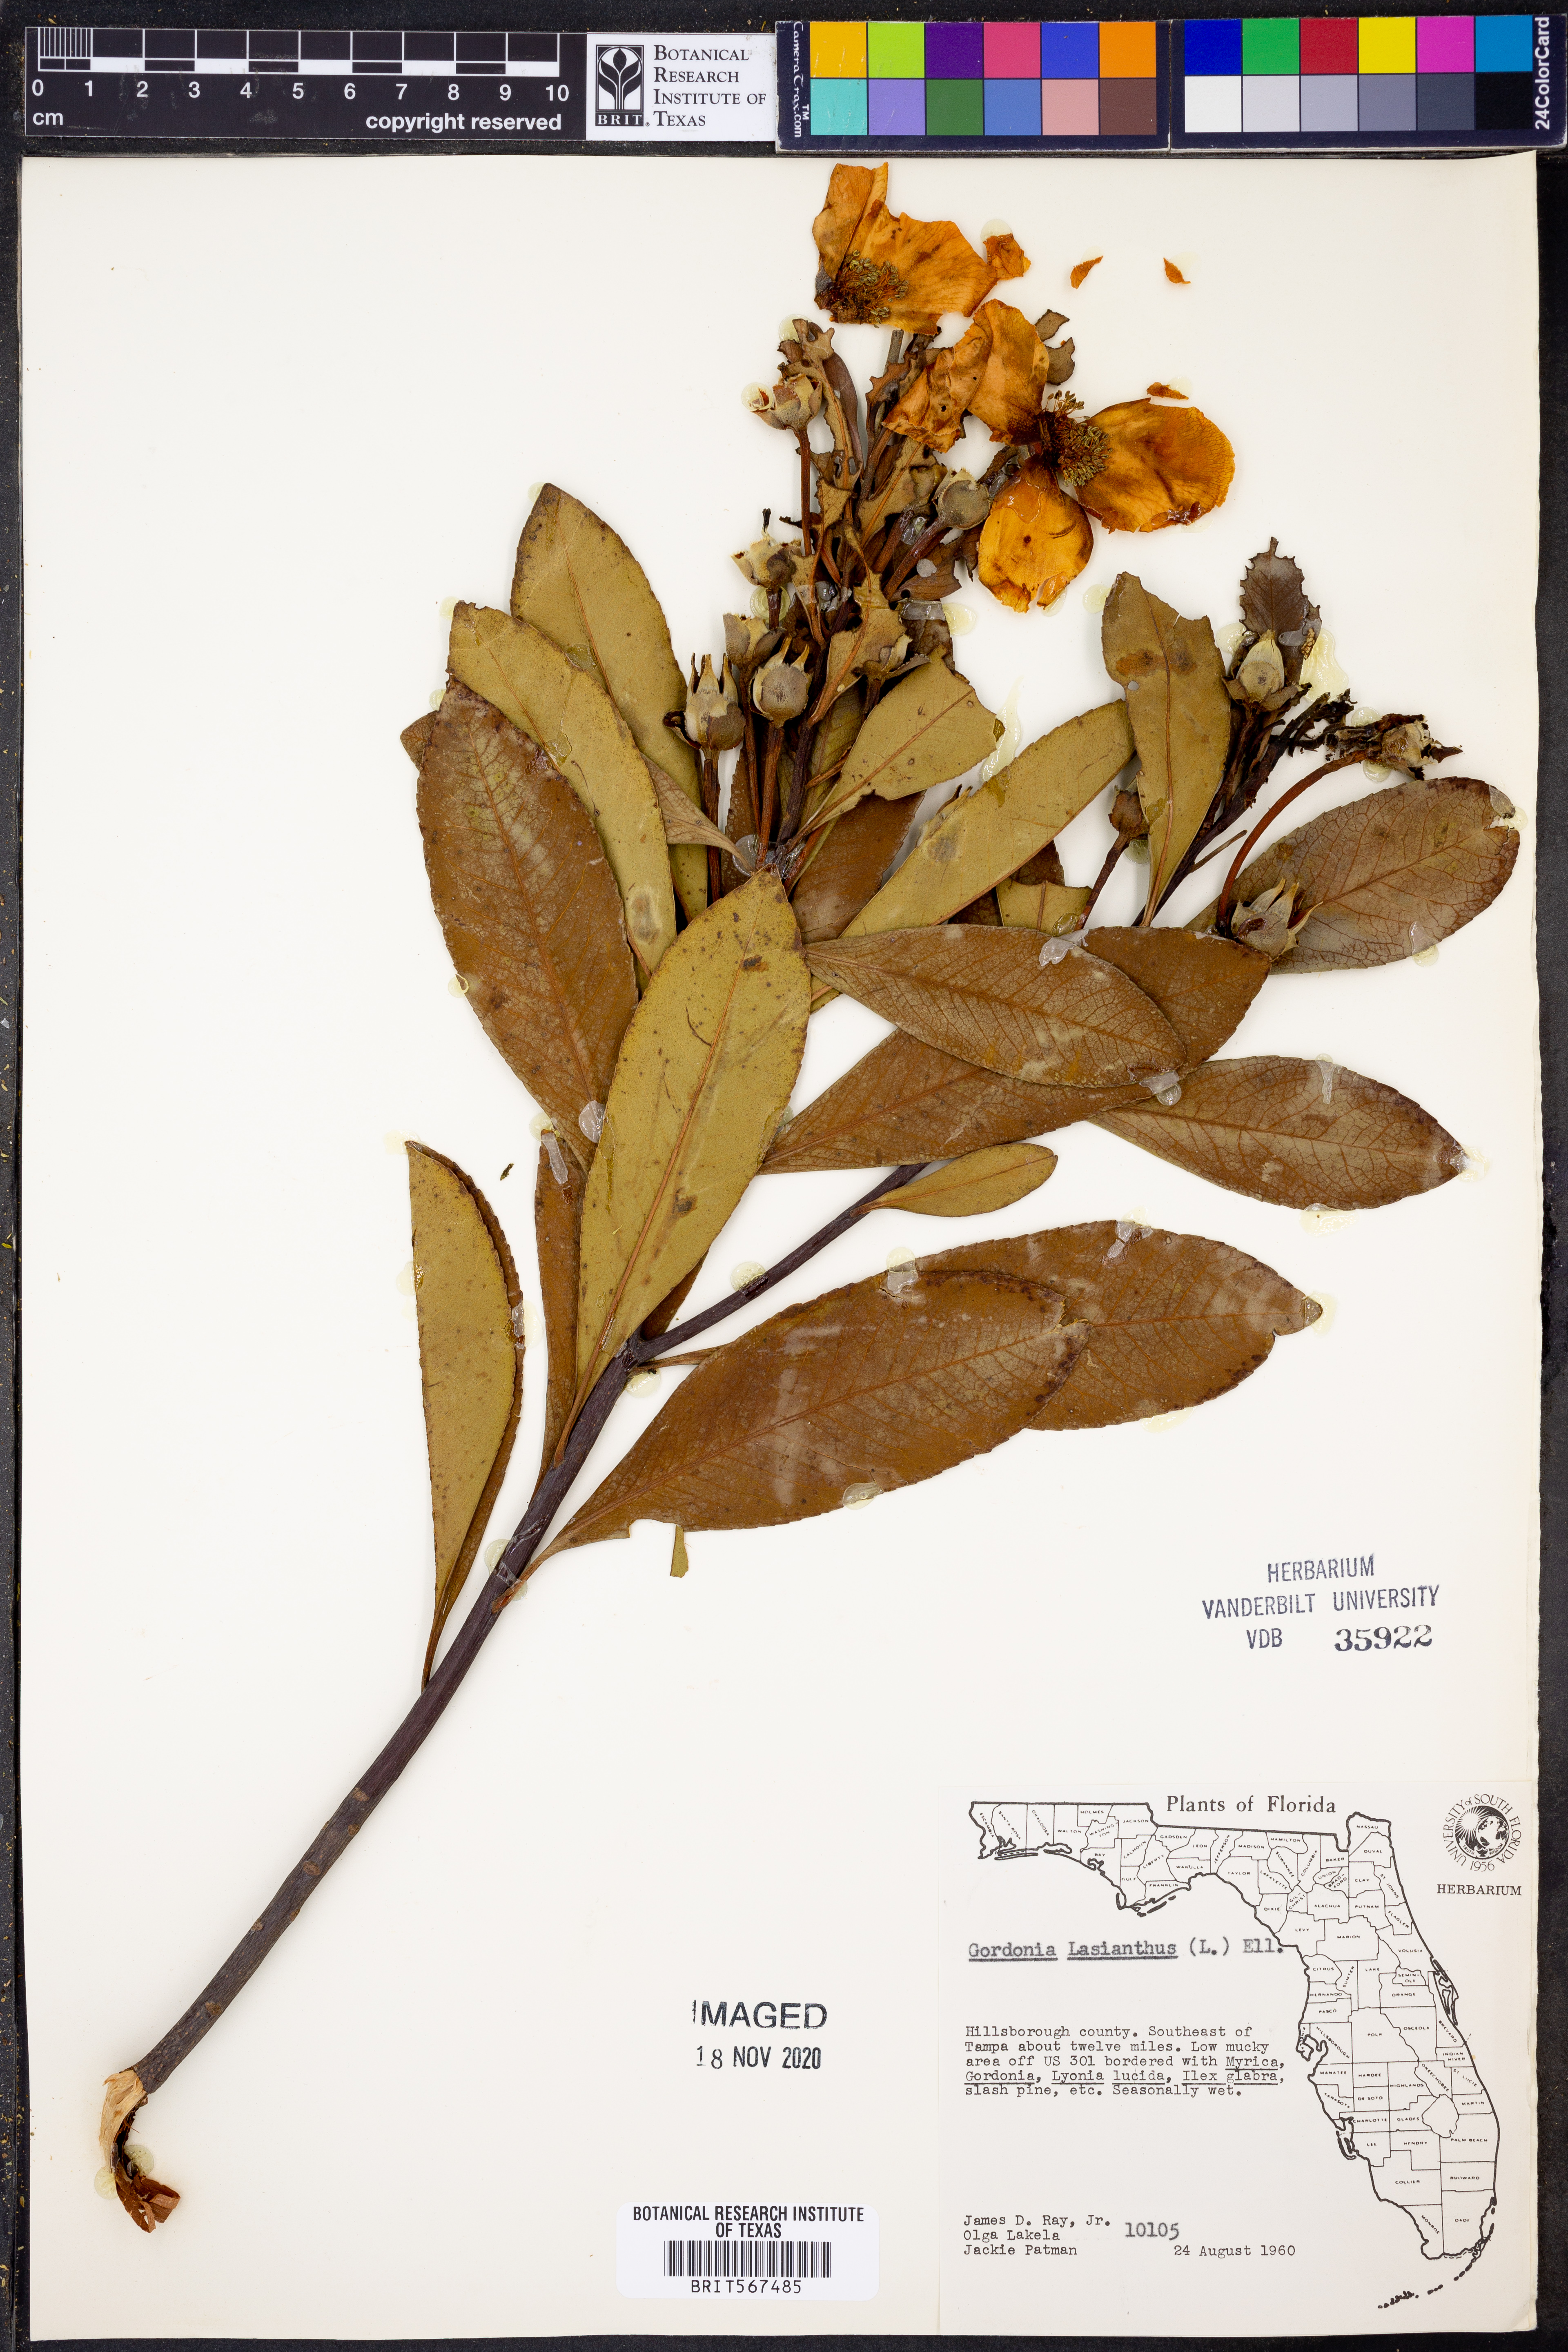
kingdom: Plantae
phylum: Tracheophyta
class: Magnoliopsida
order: Ericales
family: Theaceae
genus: Gordonia
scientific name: Gordonia lasianthus
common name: Loblolly bay
